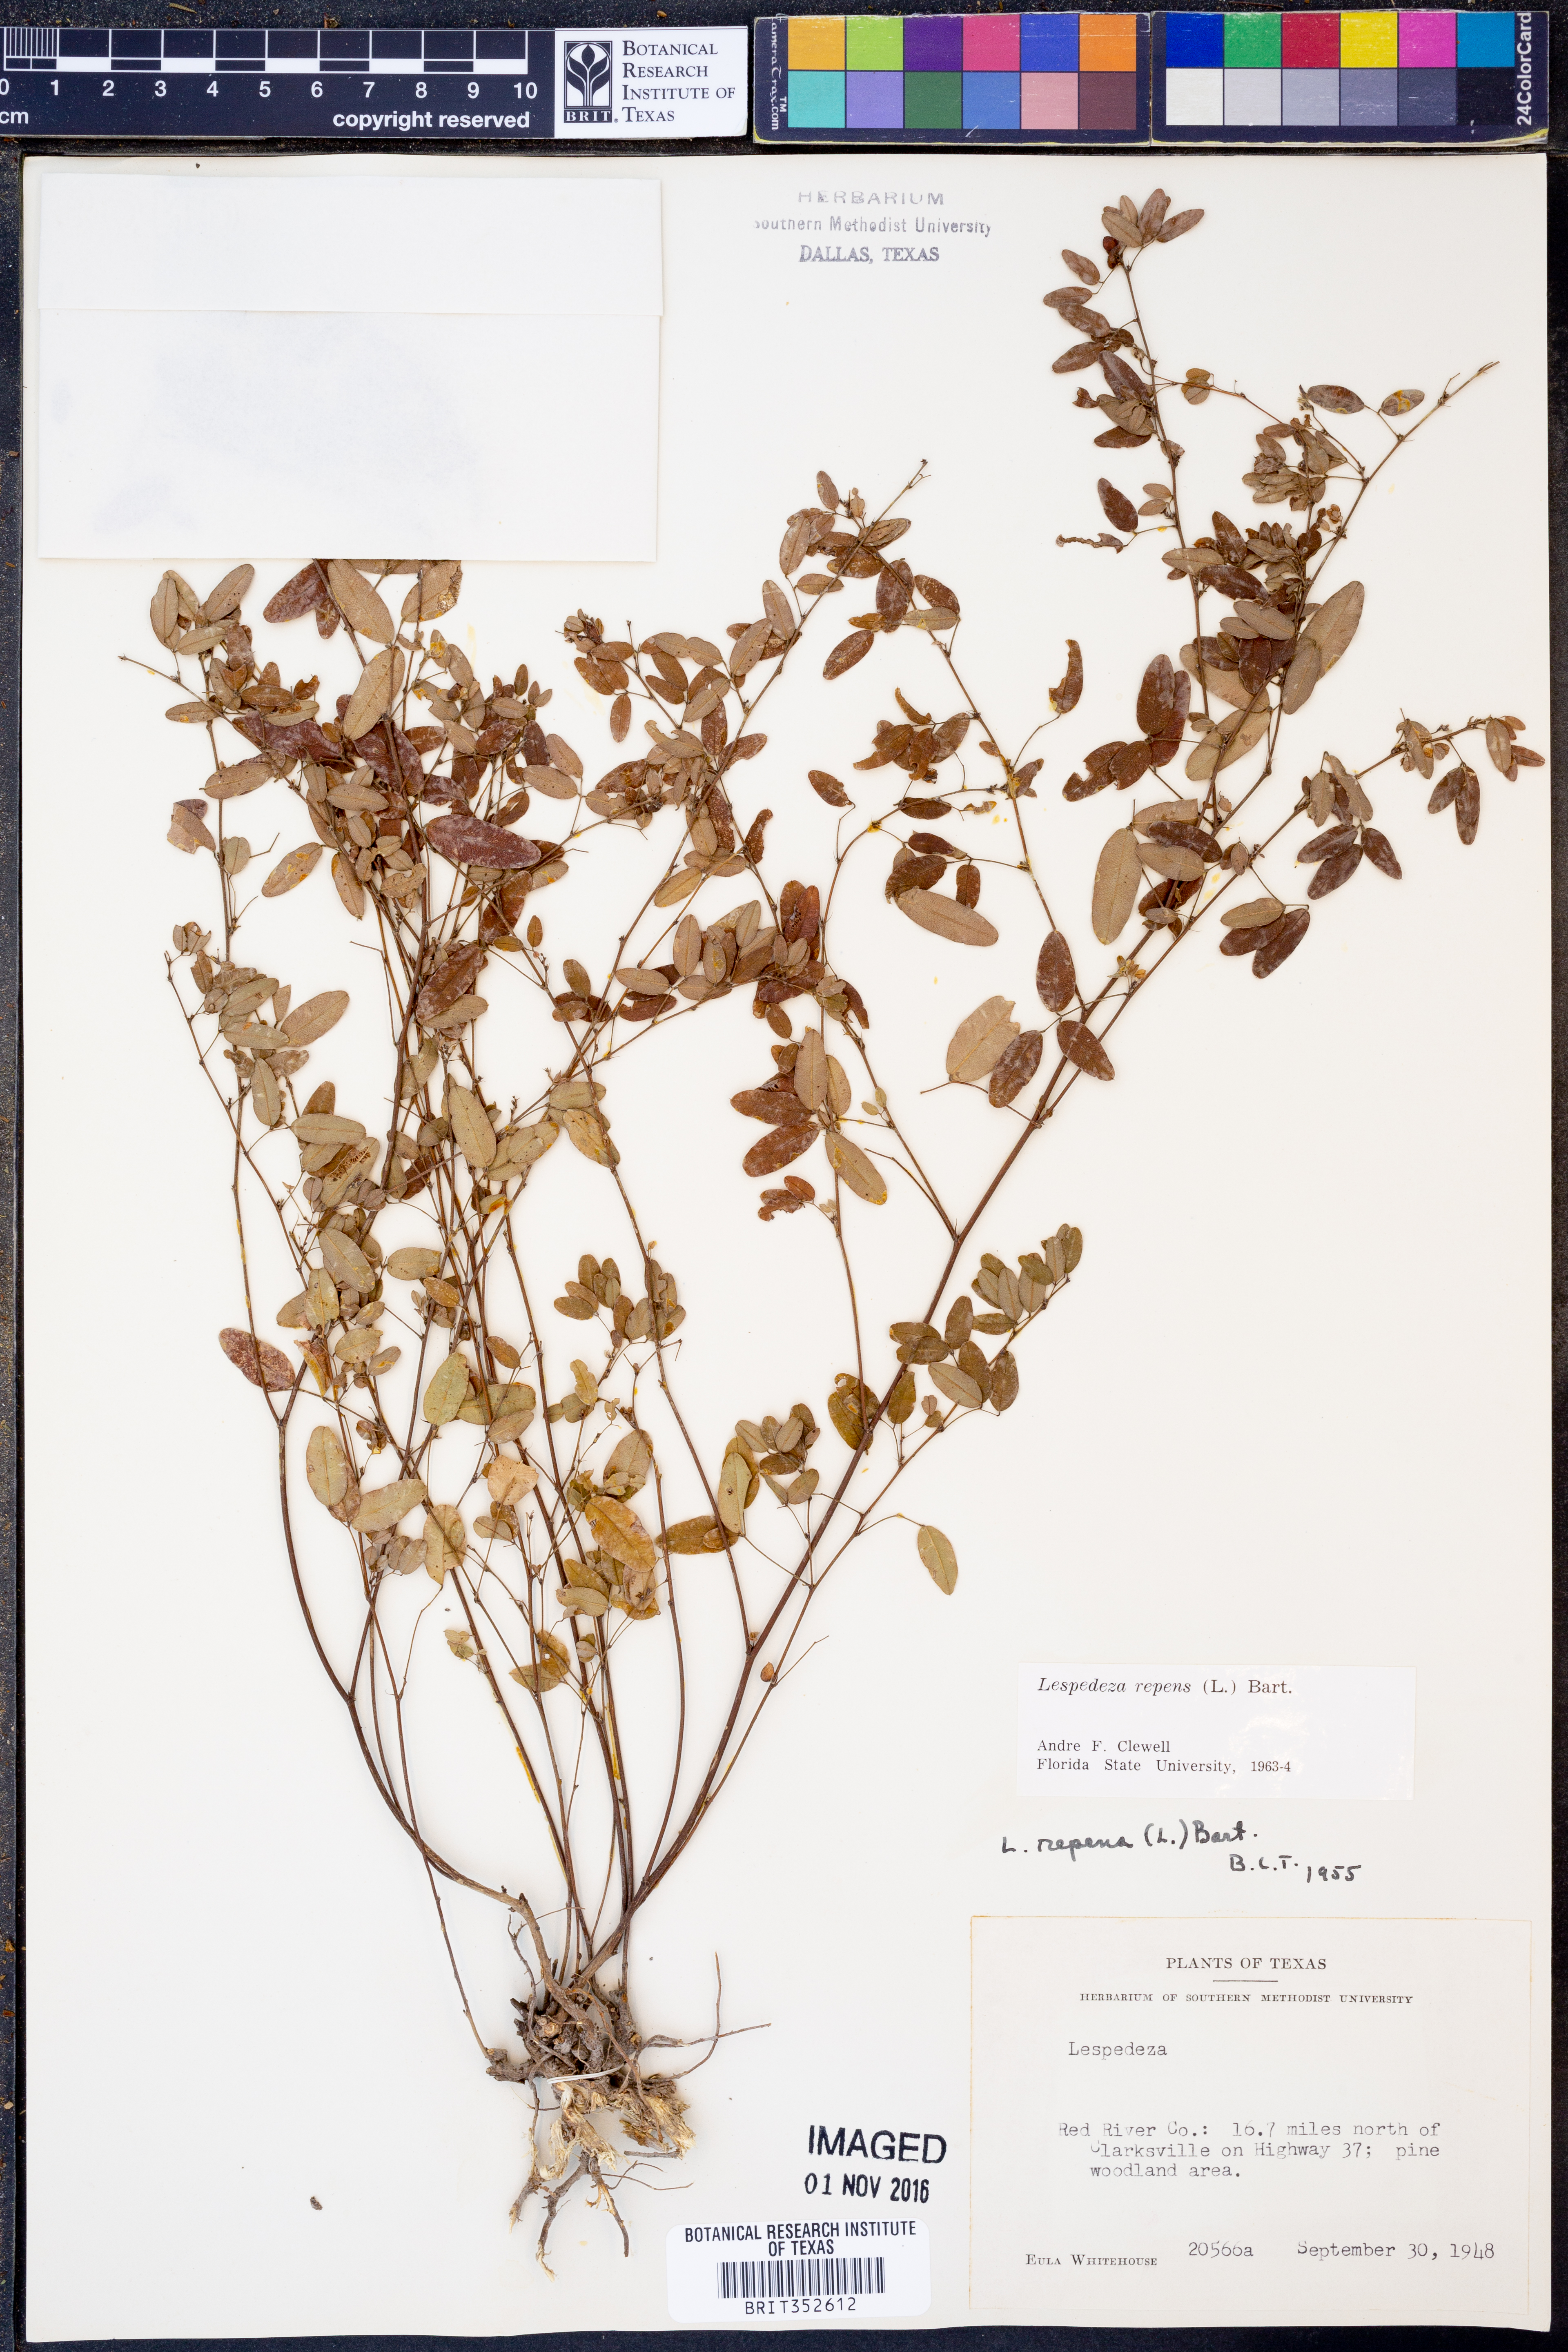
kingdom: Plantae
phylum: Tracheophyta
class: Magnoliopsida
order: Fabales
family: Fabaceae
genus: Lespedeza
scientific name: Lespedeza repens
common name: Creeping bush-clover
